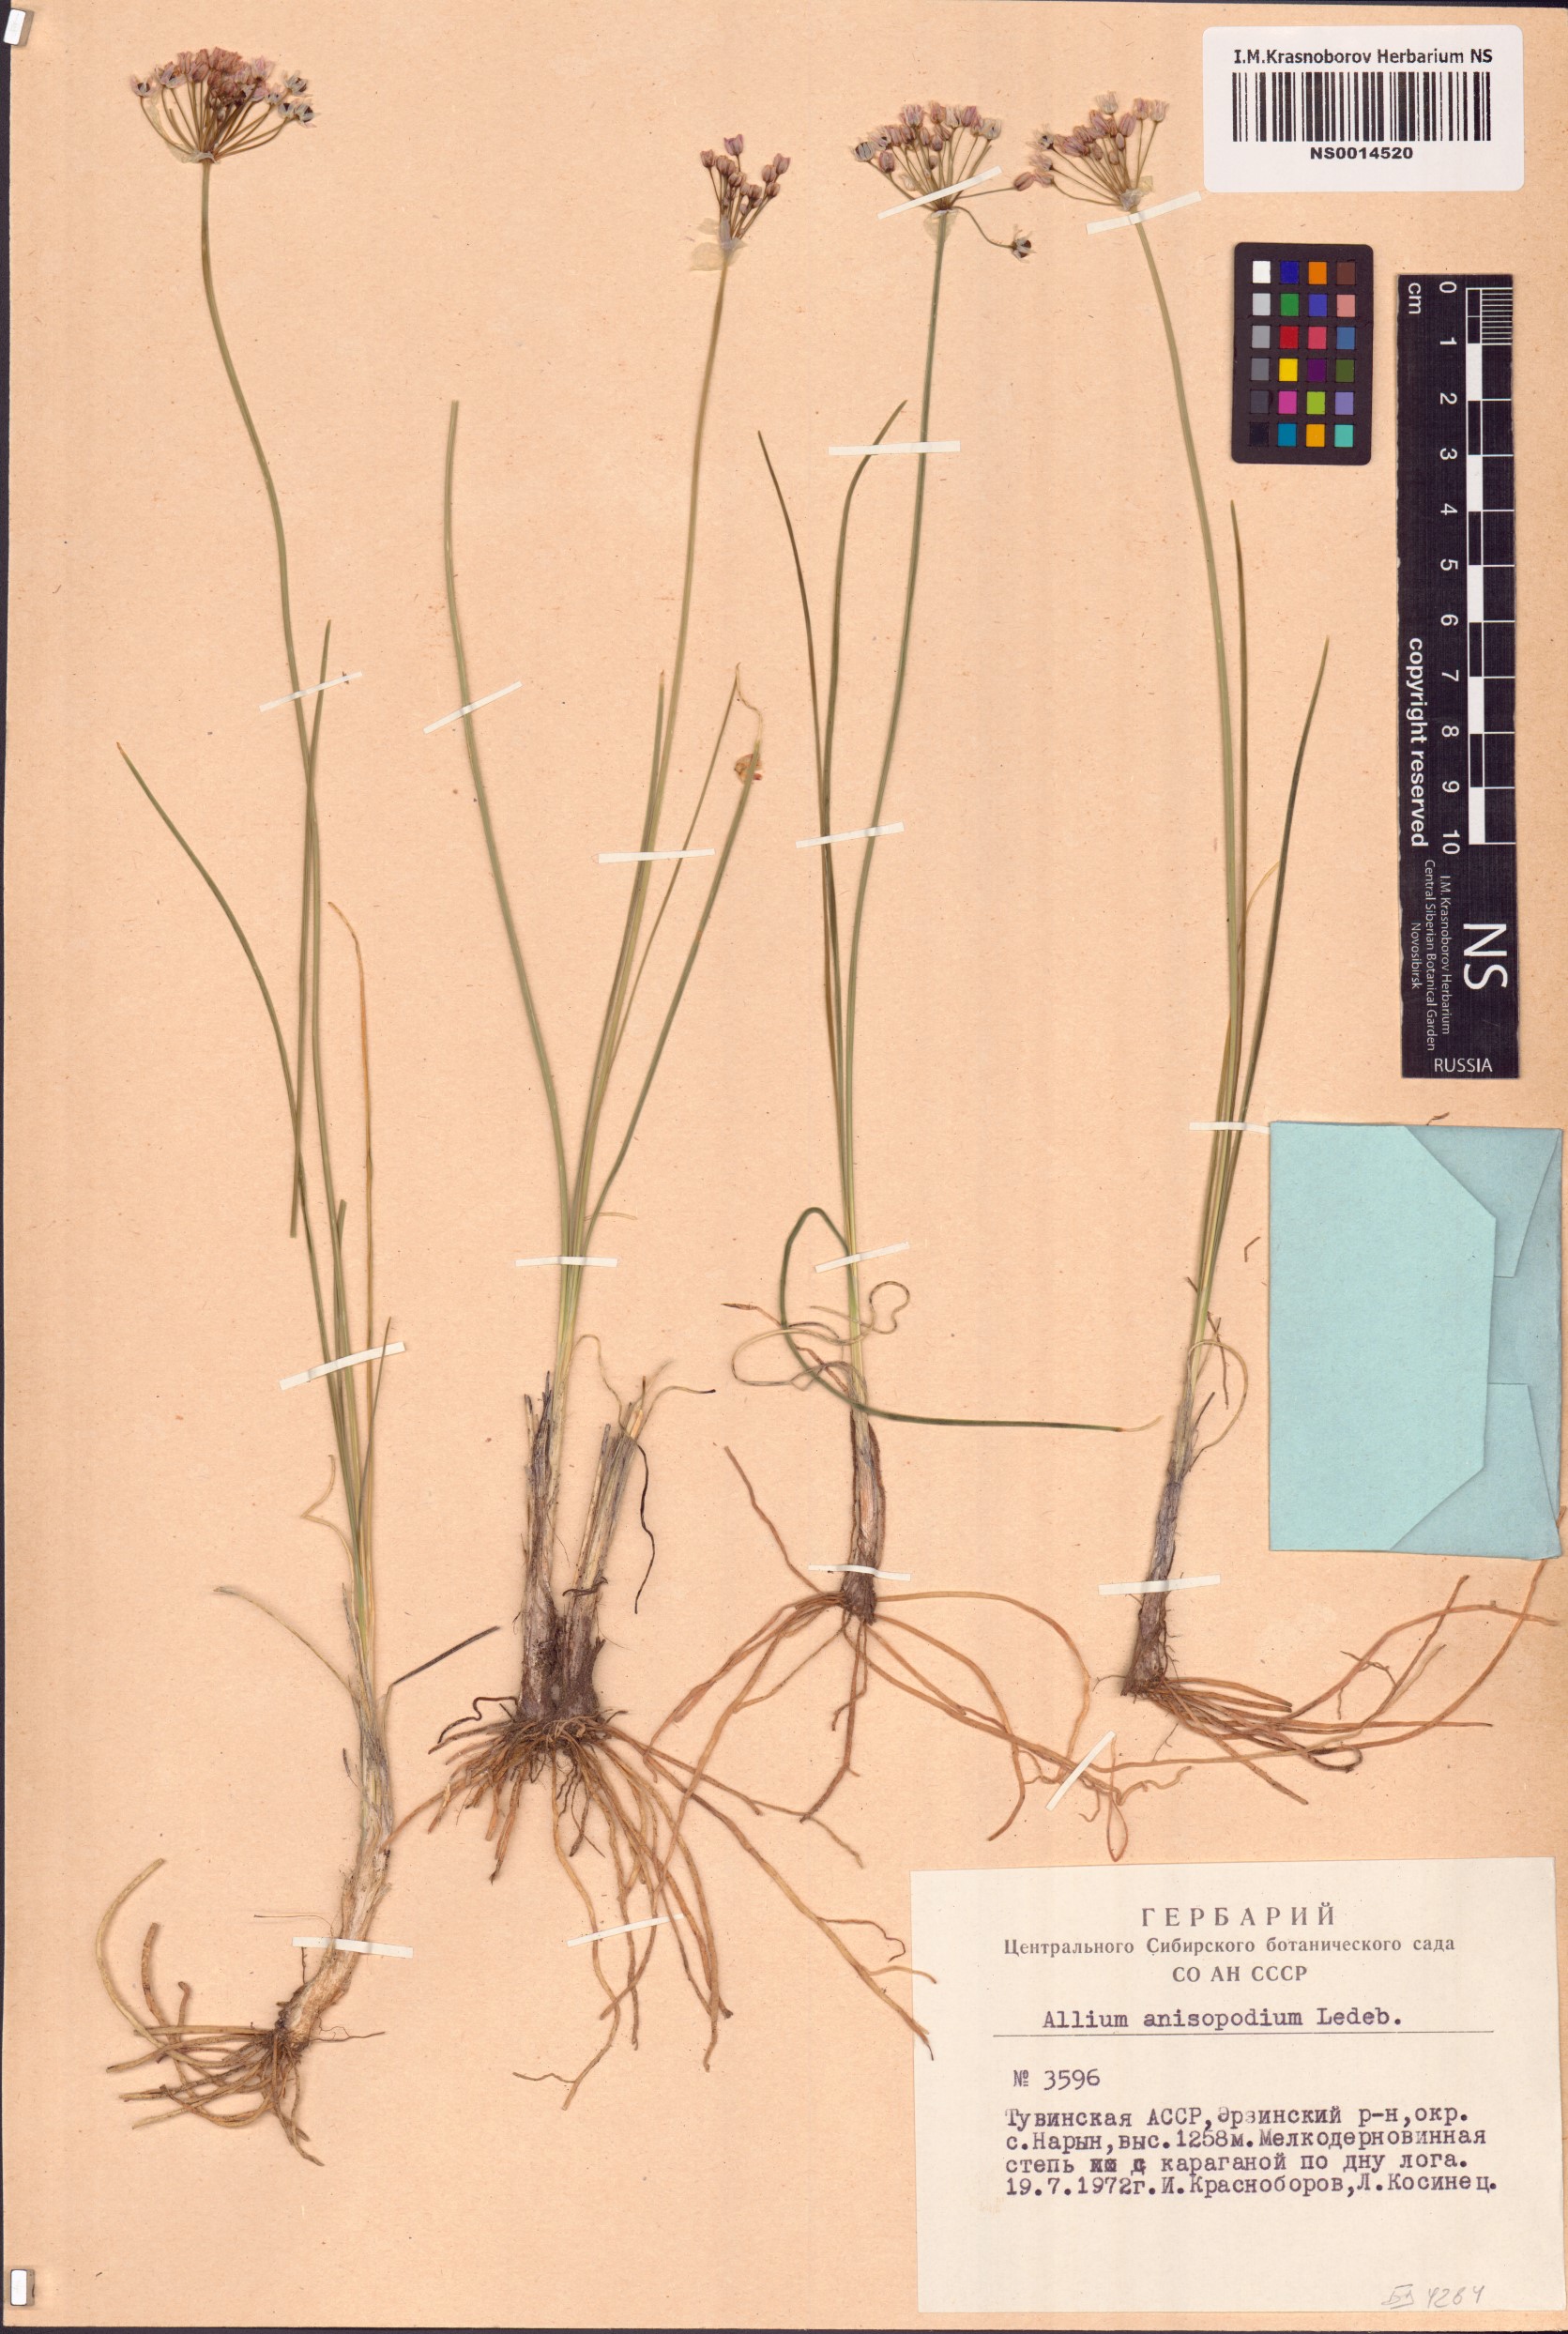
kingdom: Plantae
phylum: Tracheophyta
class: Liliopsida
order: Asparagales
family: Amaryllidaceae
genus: Allium
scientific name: Allium anisopodium
